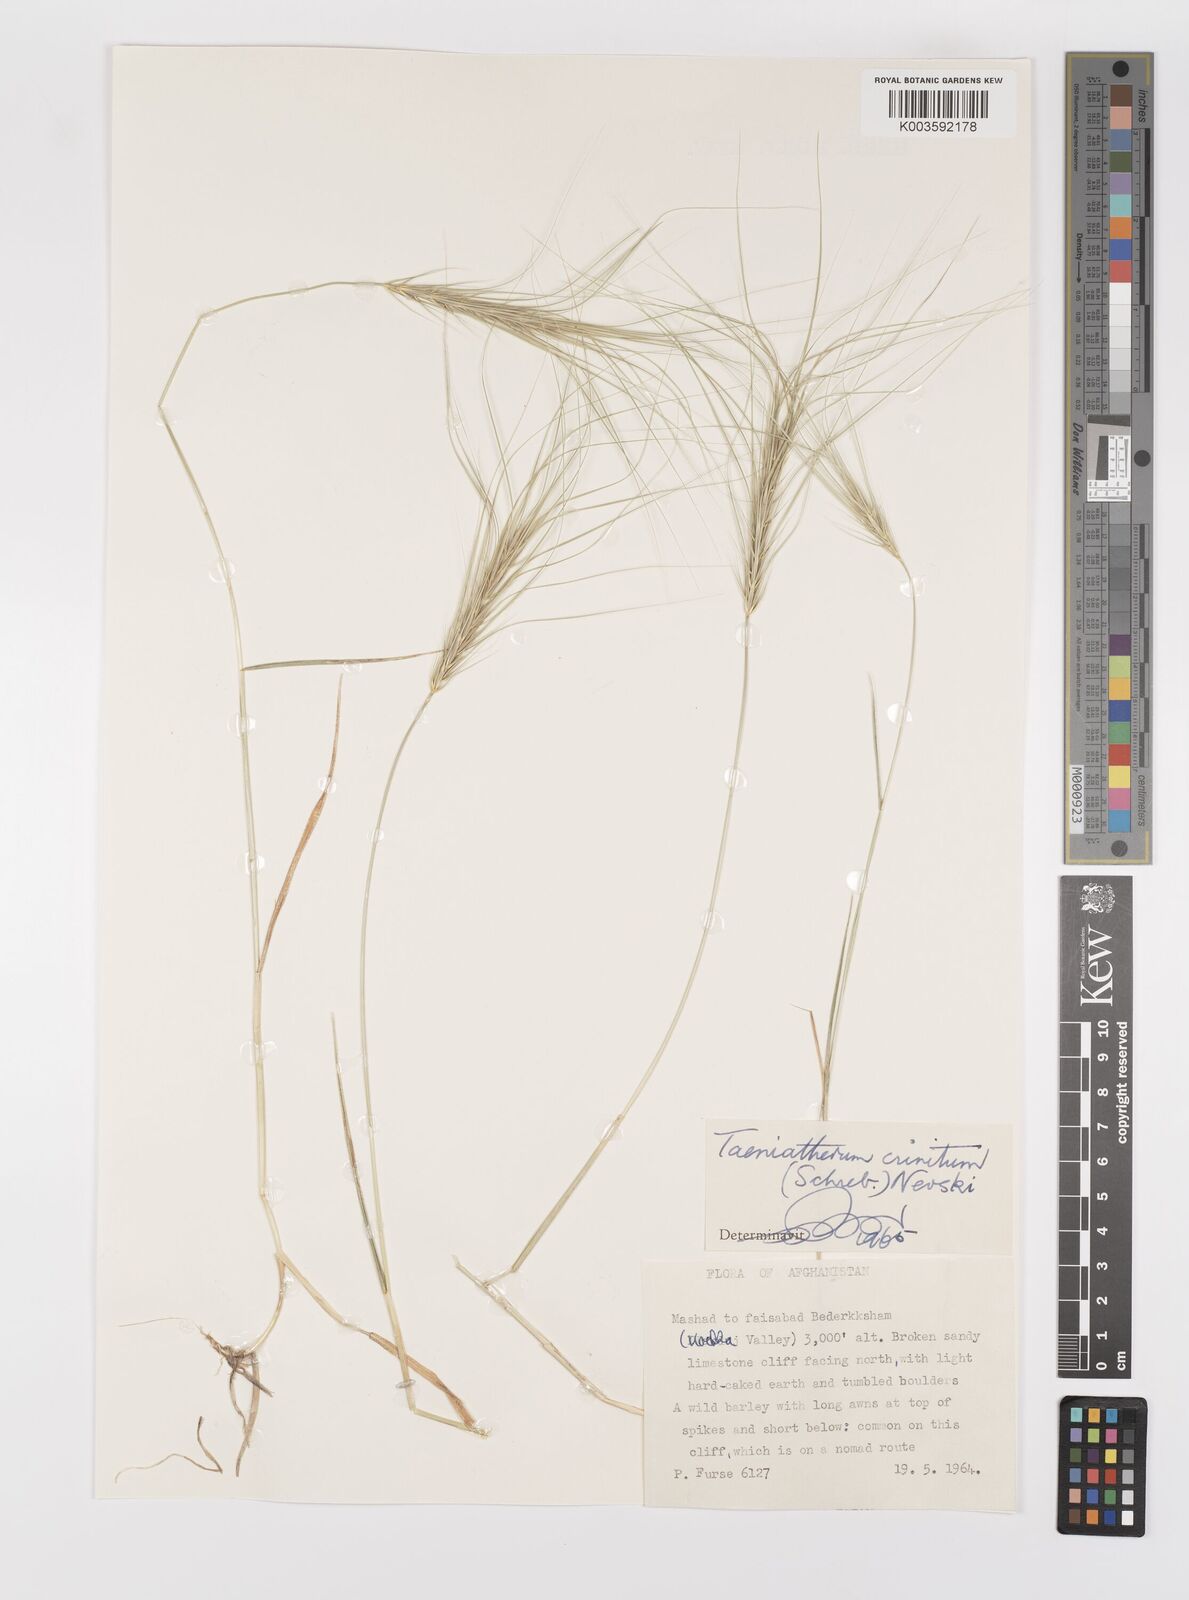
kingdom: Plantae
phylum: Tracheophyta
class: Liliopsida
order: Poales
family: Poaceae
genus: Taeniatherum
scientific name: Taeniatherum caput-medusae
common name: Medusahead
